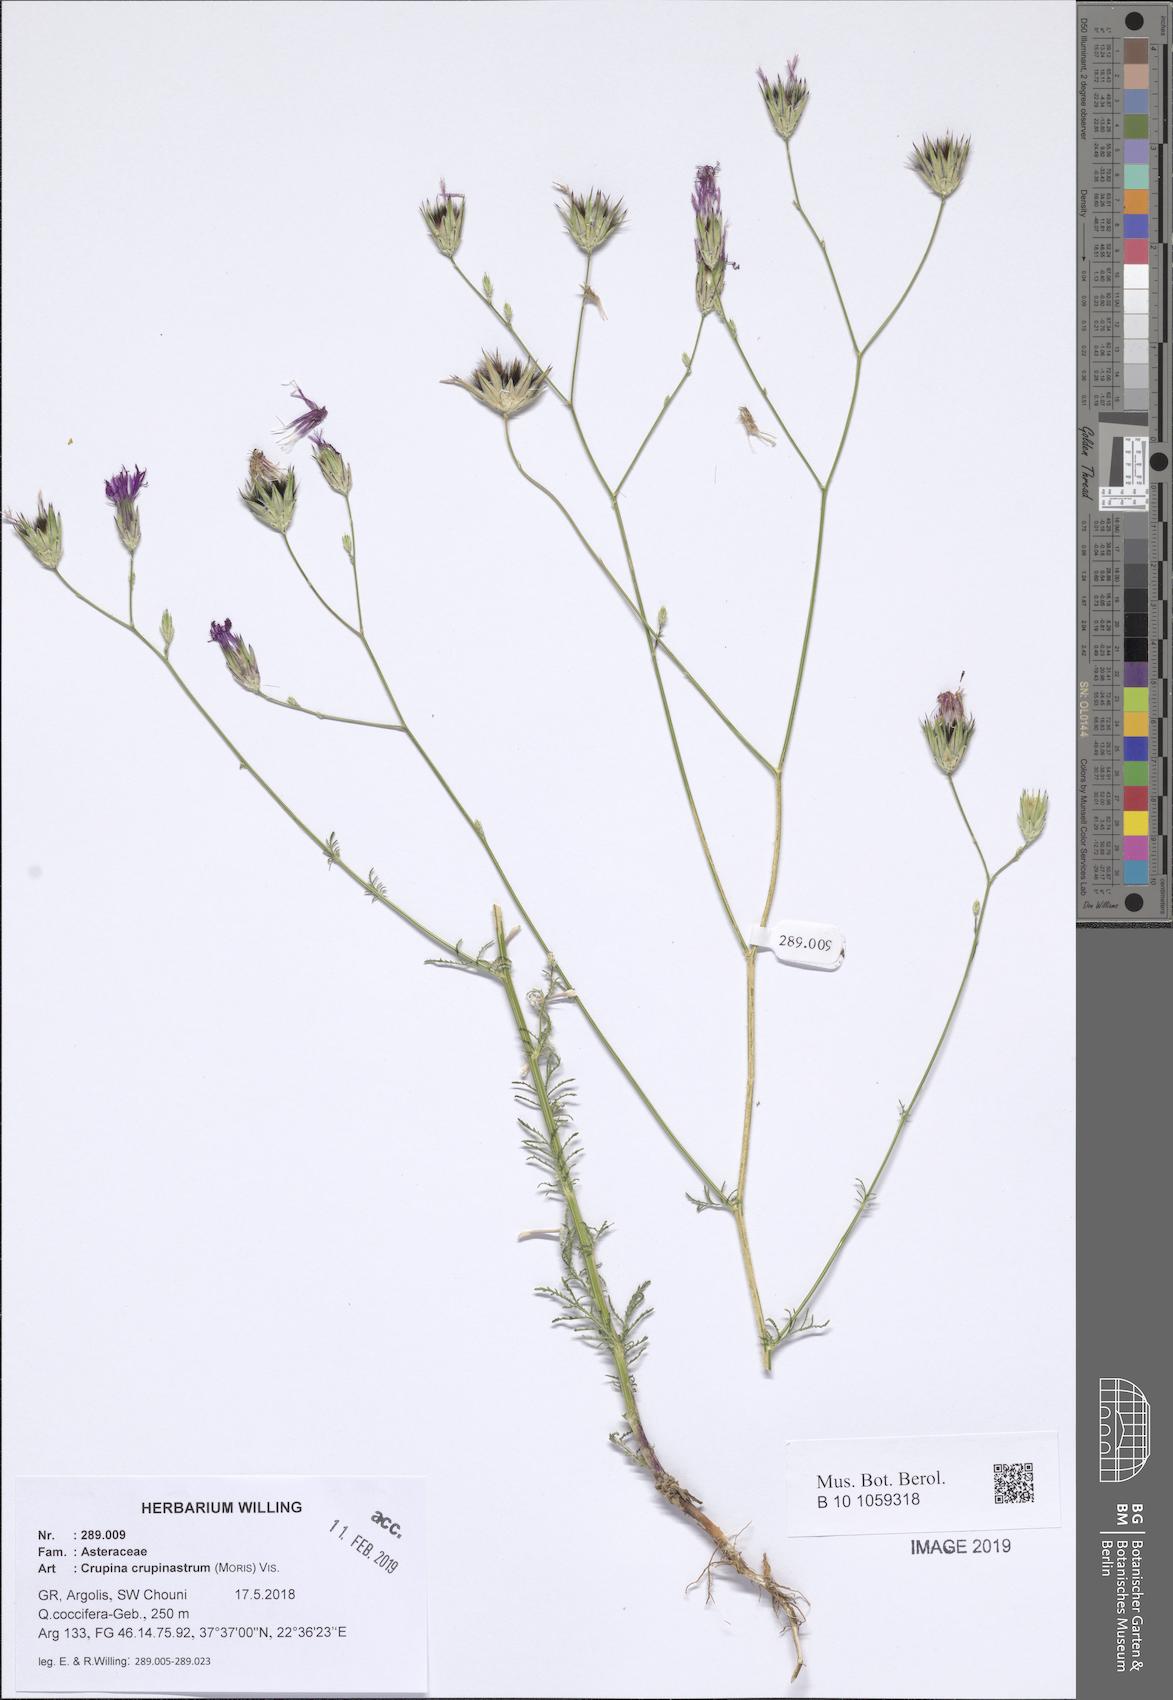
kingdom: Plantae
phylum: Tracheophyta
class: Magnoliopsida
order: Asterales
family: Asteraceae
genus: Crupina
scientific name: Crupina crupinastrum
